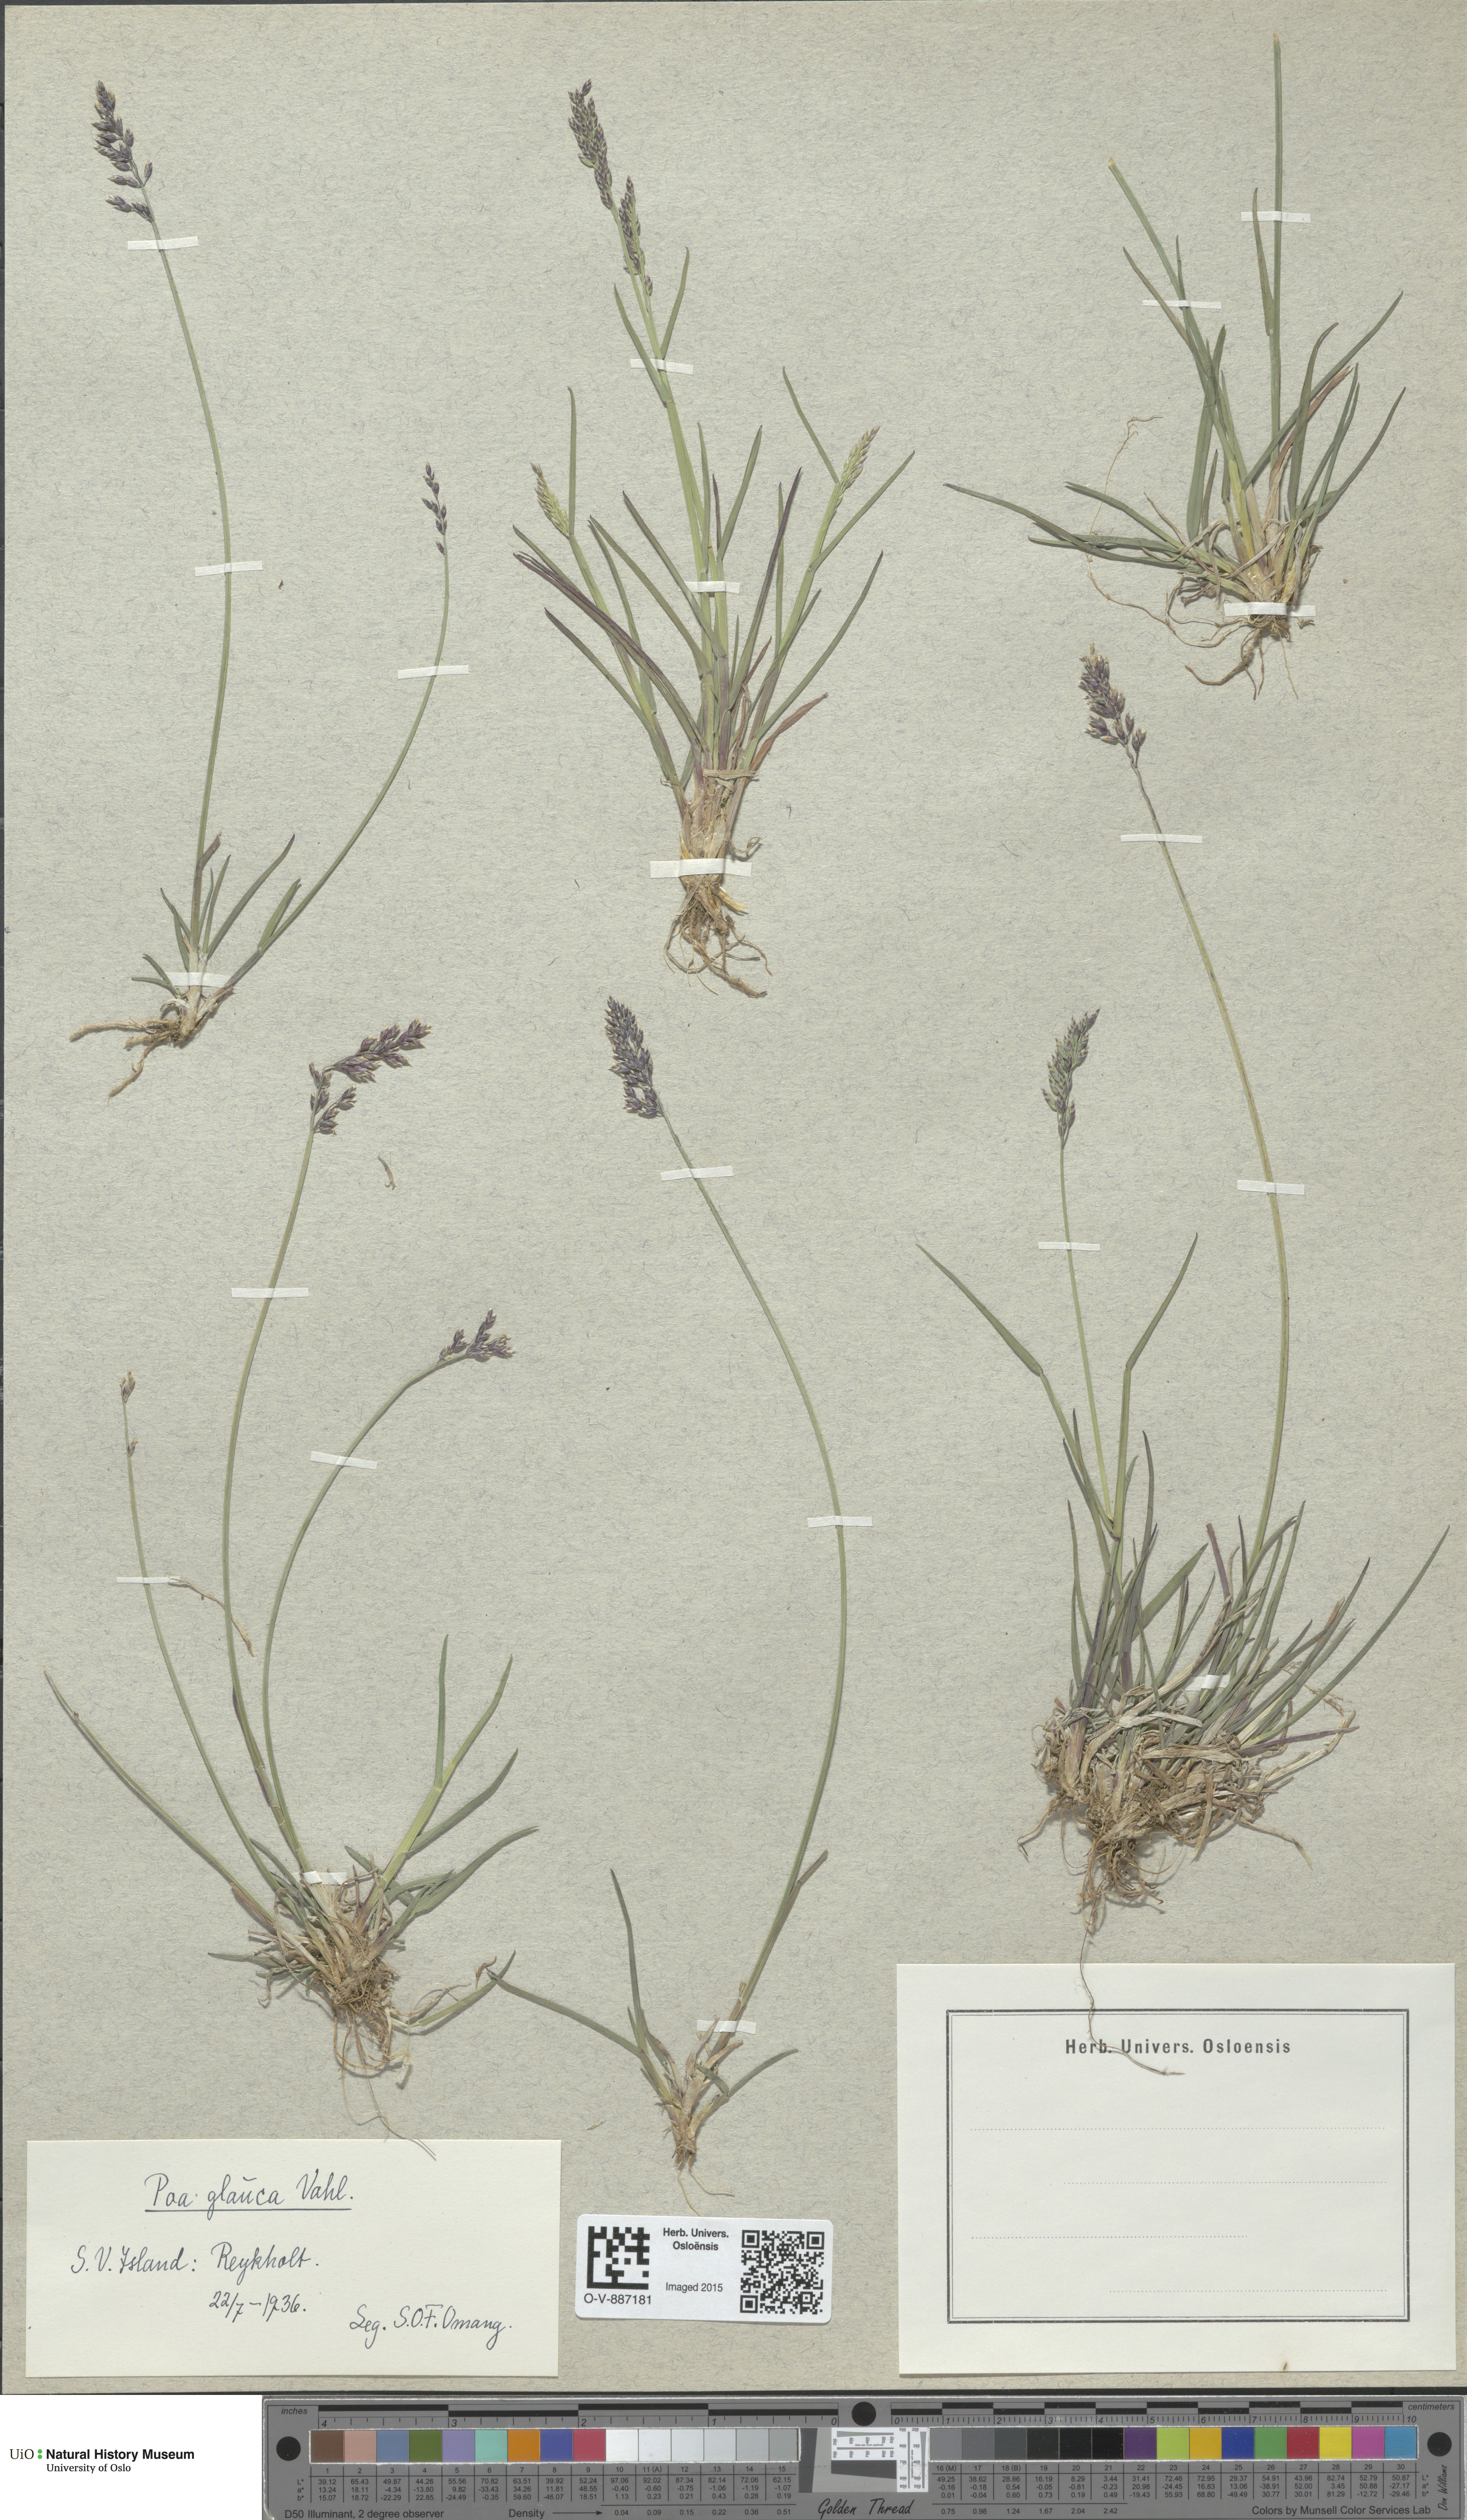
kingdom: Plantae
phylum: Tracheophyta
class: Liliopsida
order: Poales
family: Poaceae
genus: Poa
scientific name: Poa glauca
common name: Glaucous bluegrass
